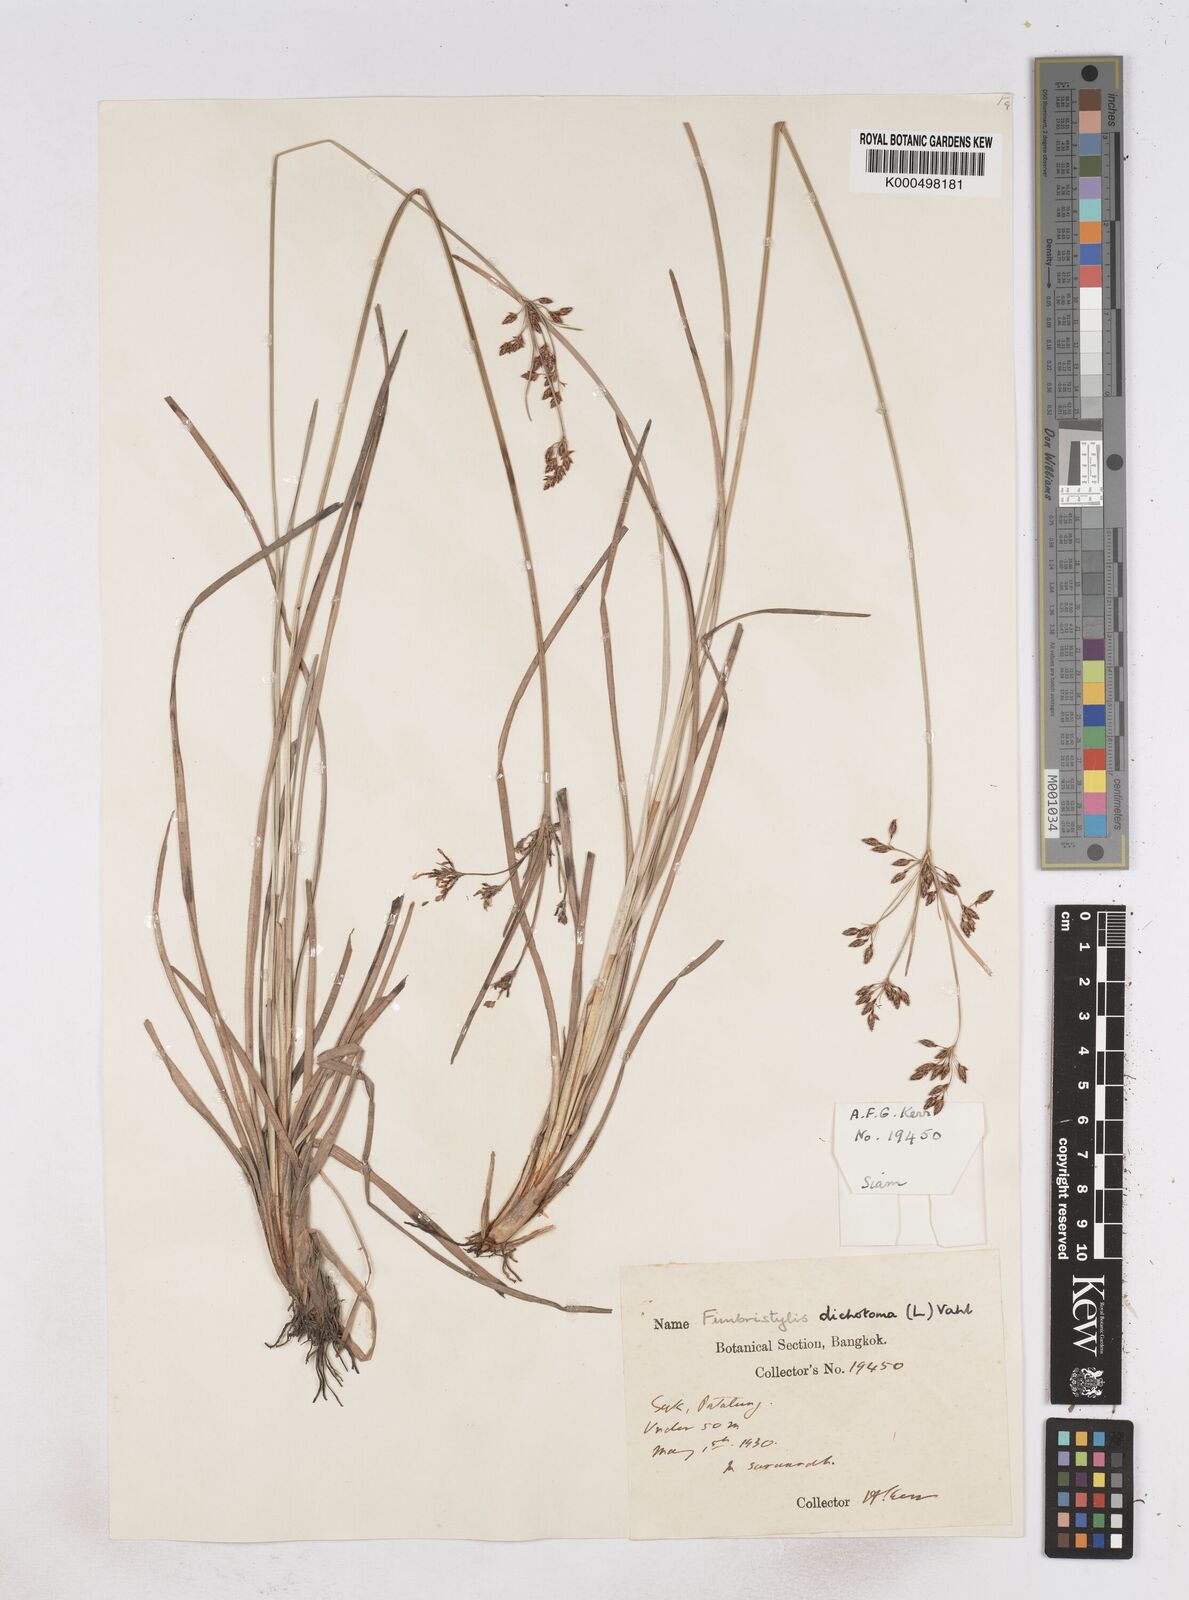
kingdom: Plantae
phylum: Tracheophyta
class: Liliopsida
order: Poales
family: Cyperaceae
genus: Fimbristylis
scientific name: Fimbristylis dichotoma
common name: Forked fimbry
